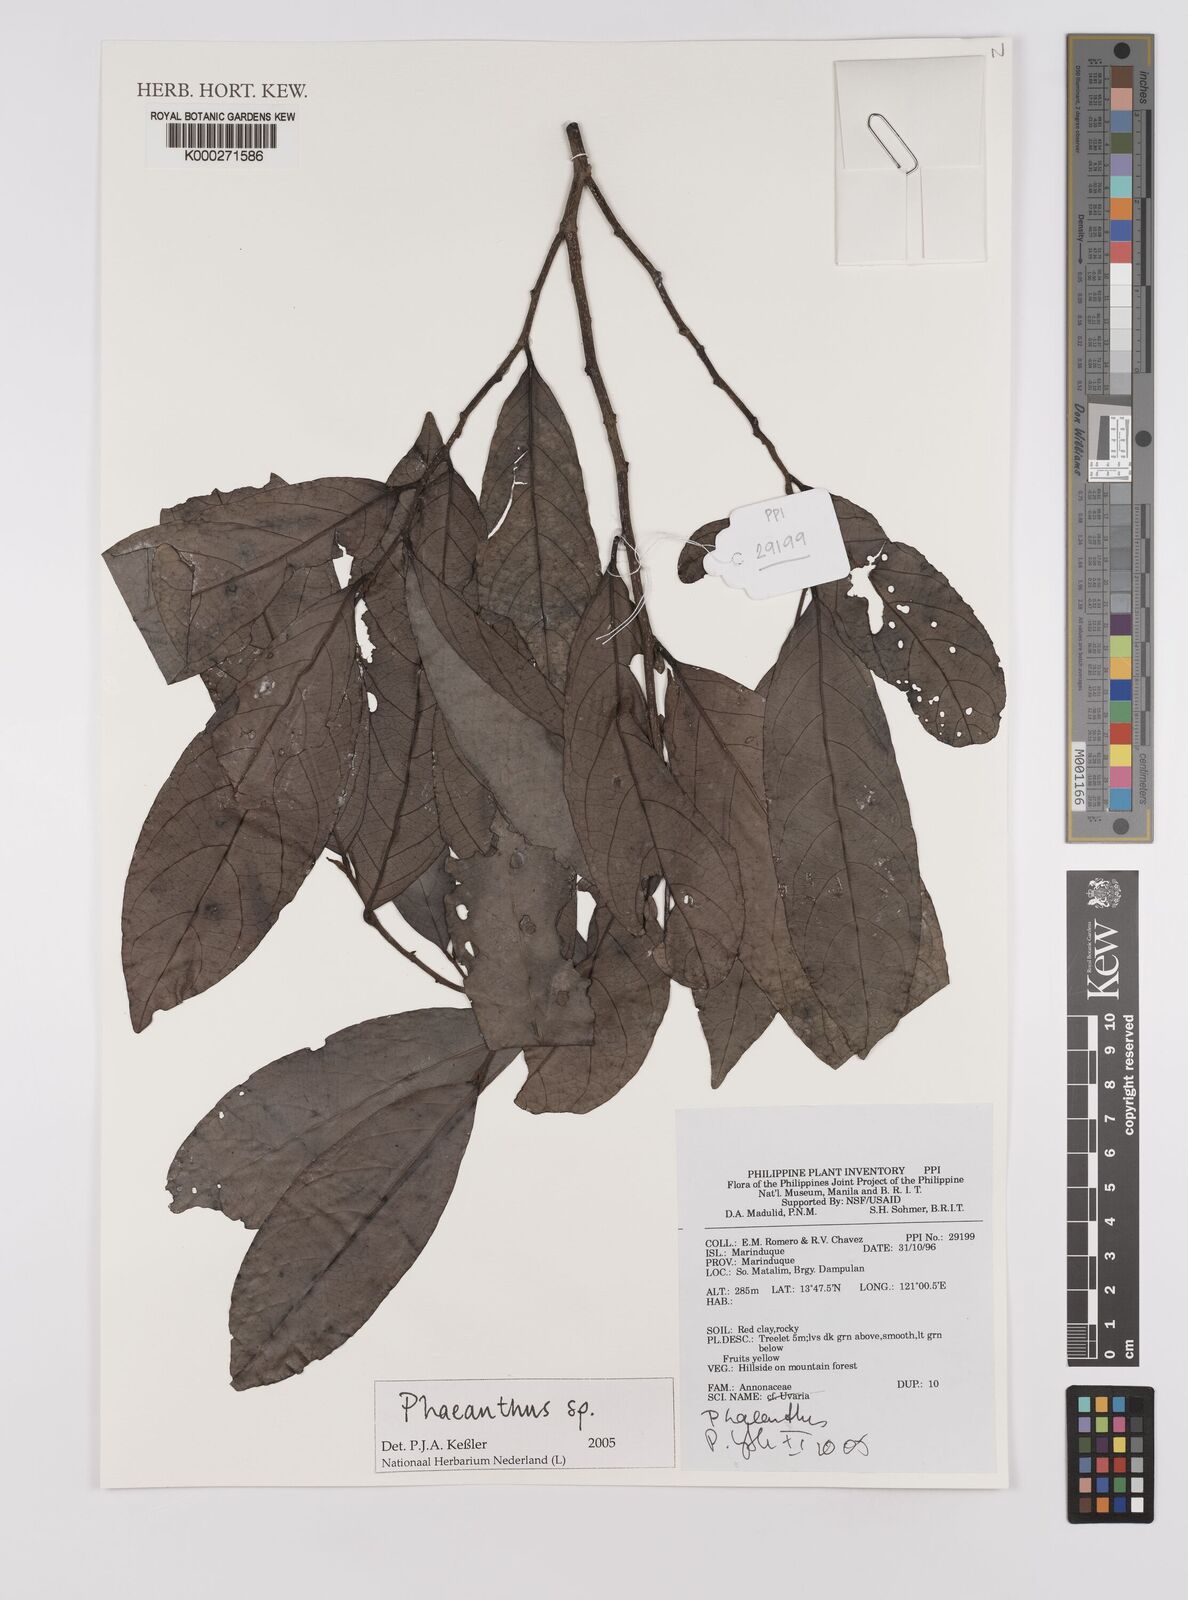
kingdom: Plantae
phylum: Tracheophyta
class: Magnoliopsida
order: Magnoliales
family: Annonaceae
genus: Phaeanthus
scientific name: Phaeanthus
